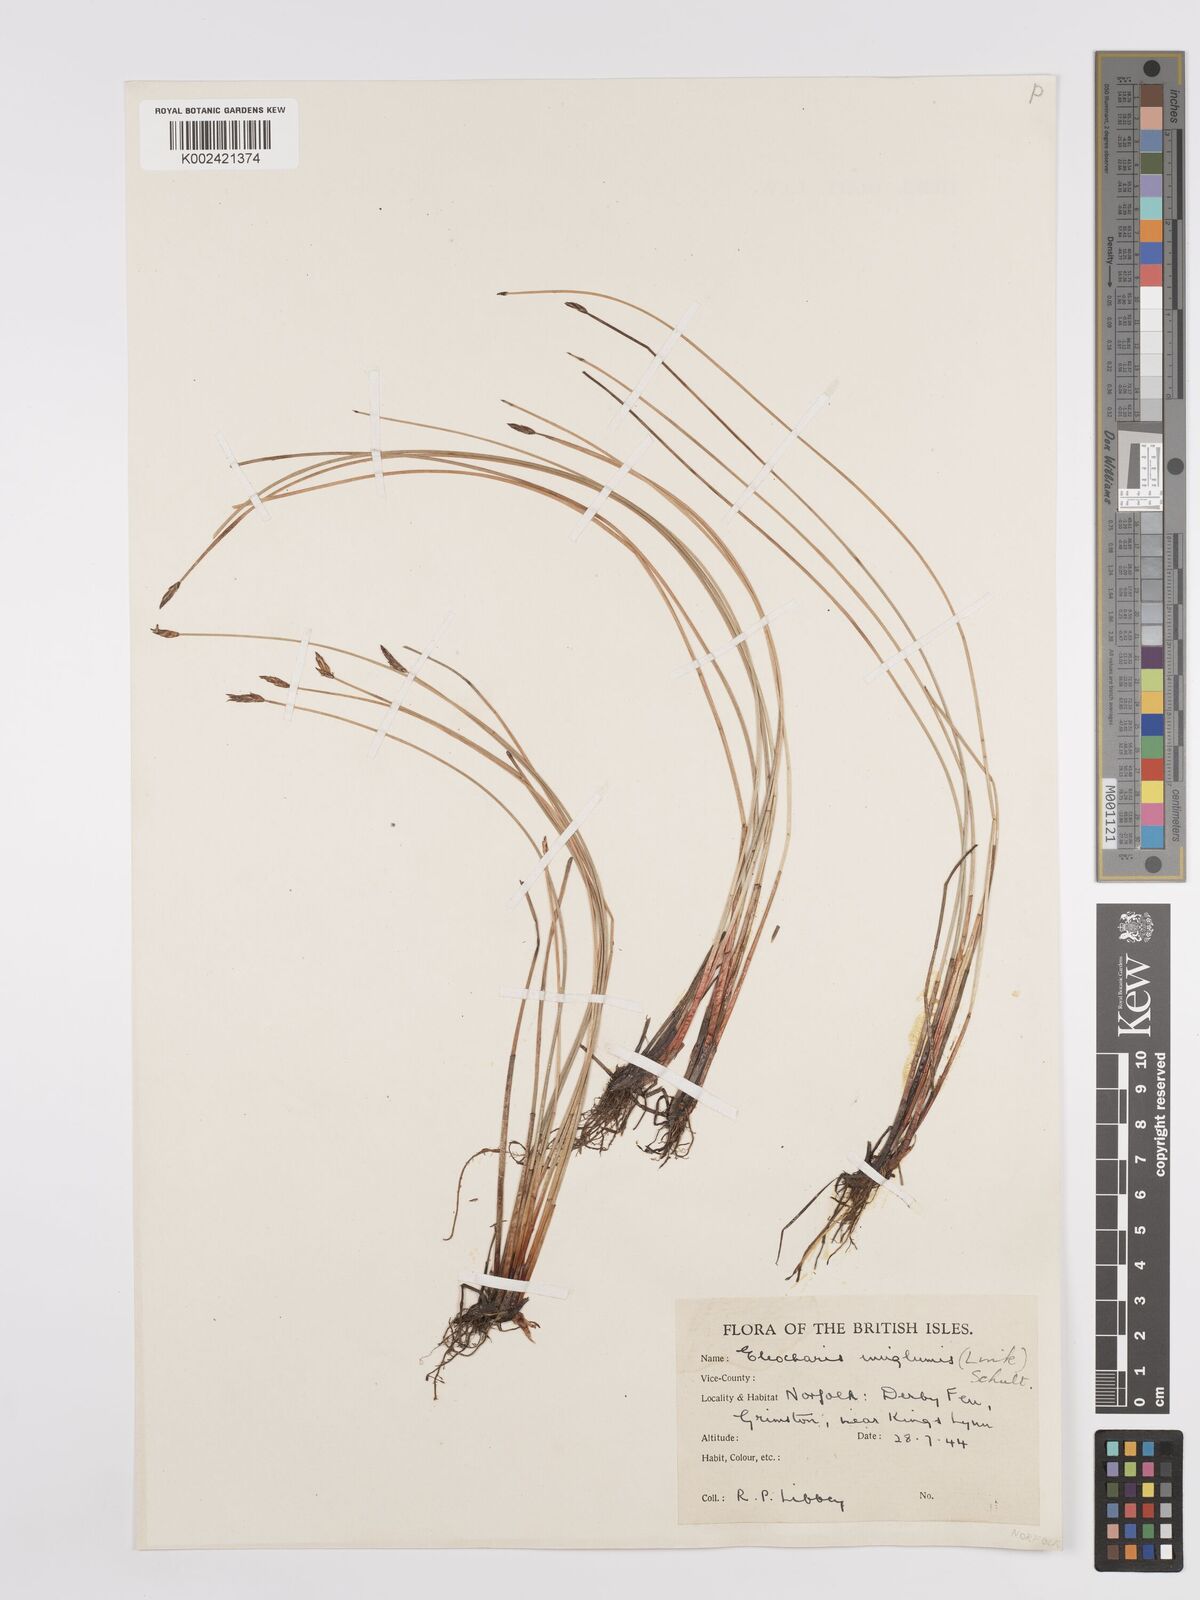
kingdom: Plantae
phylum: Tracheophyta
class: Liliopsida
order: Poales
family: Cyperaceae
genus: Eleocharis
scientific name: Eleocharis uniglumis
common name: Slender spike-rush
